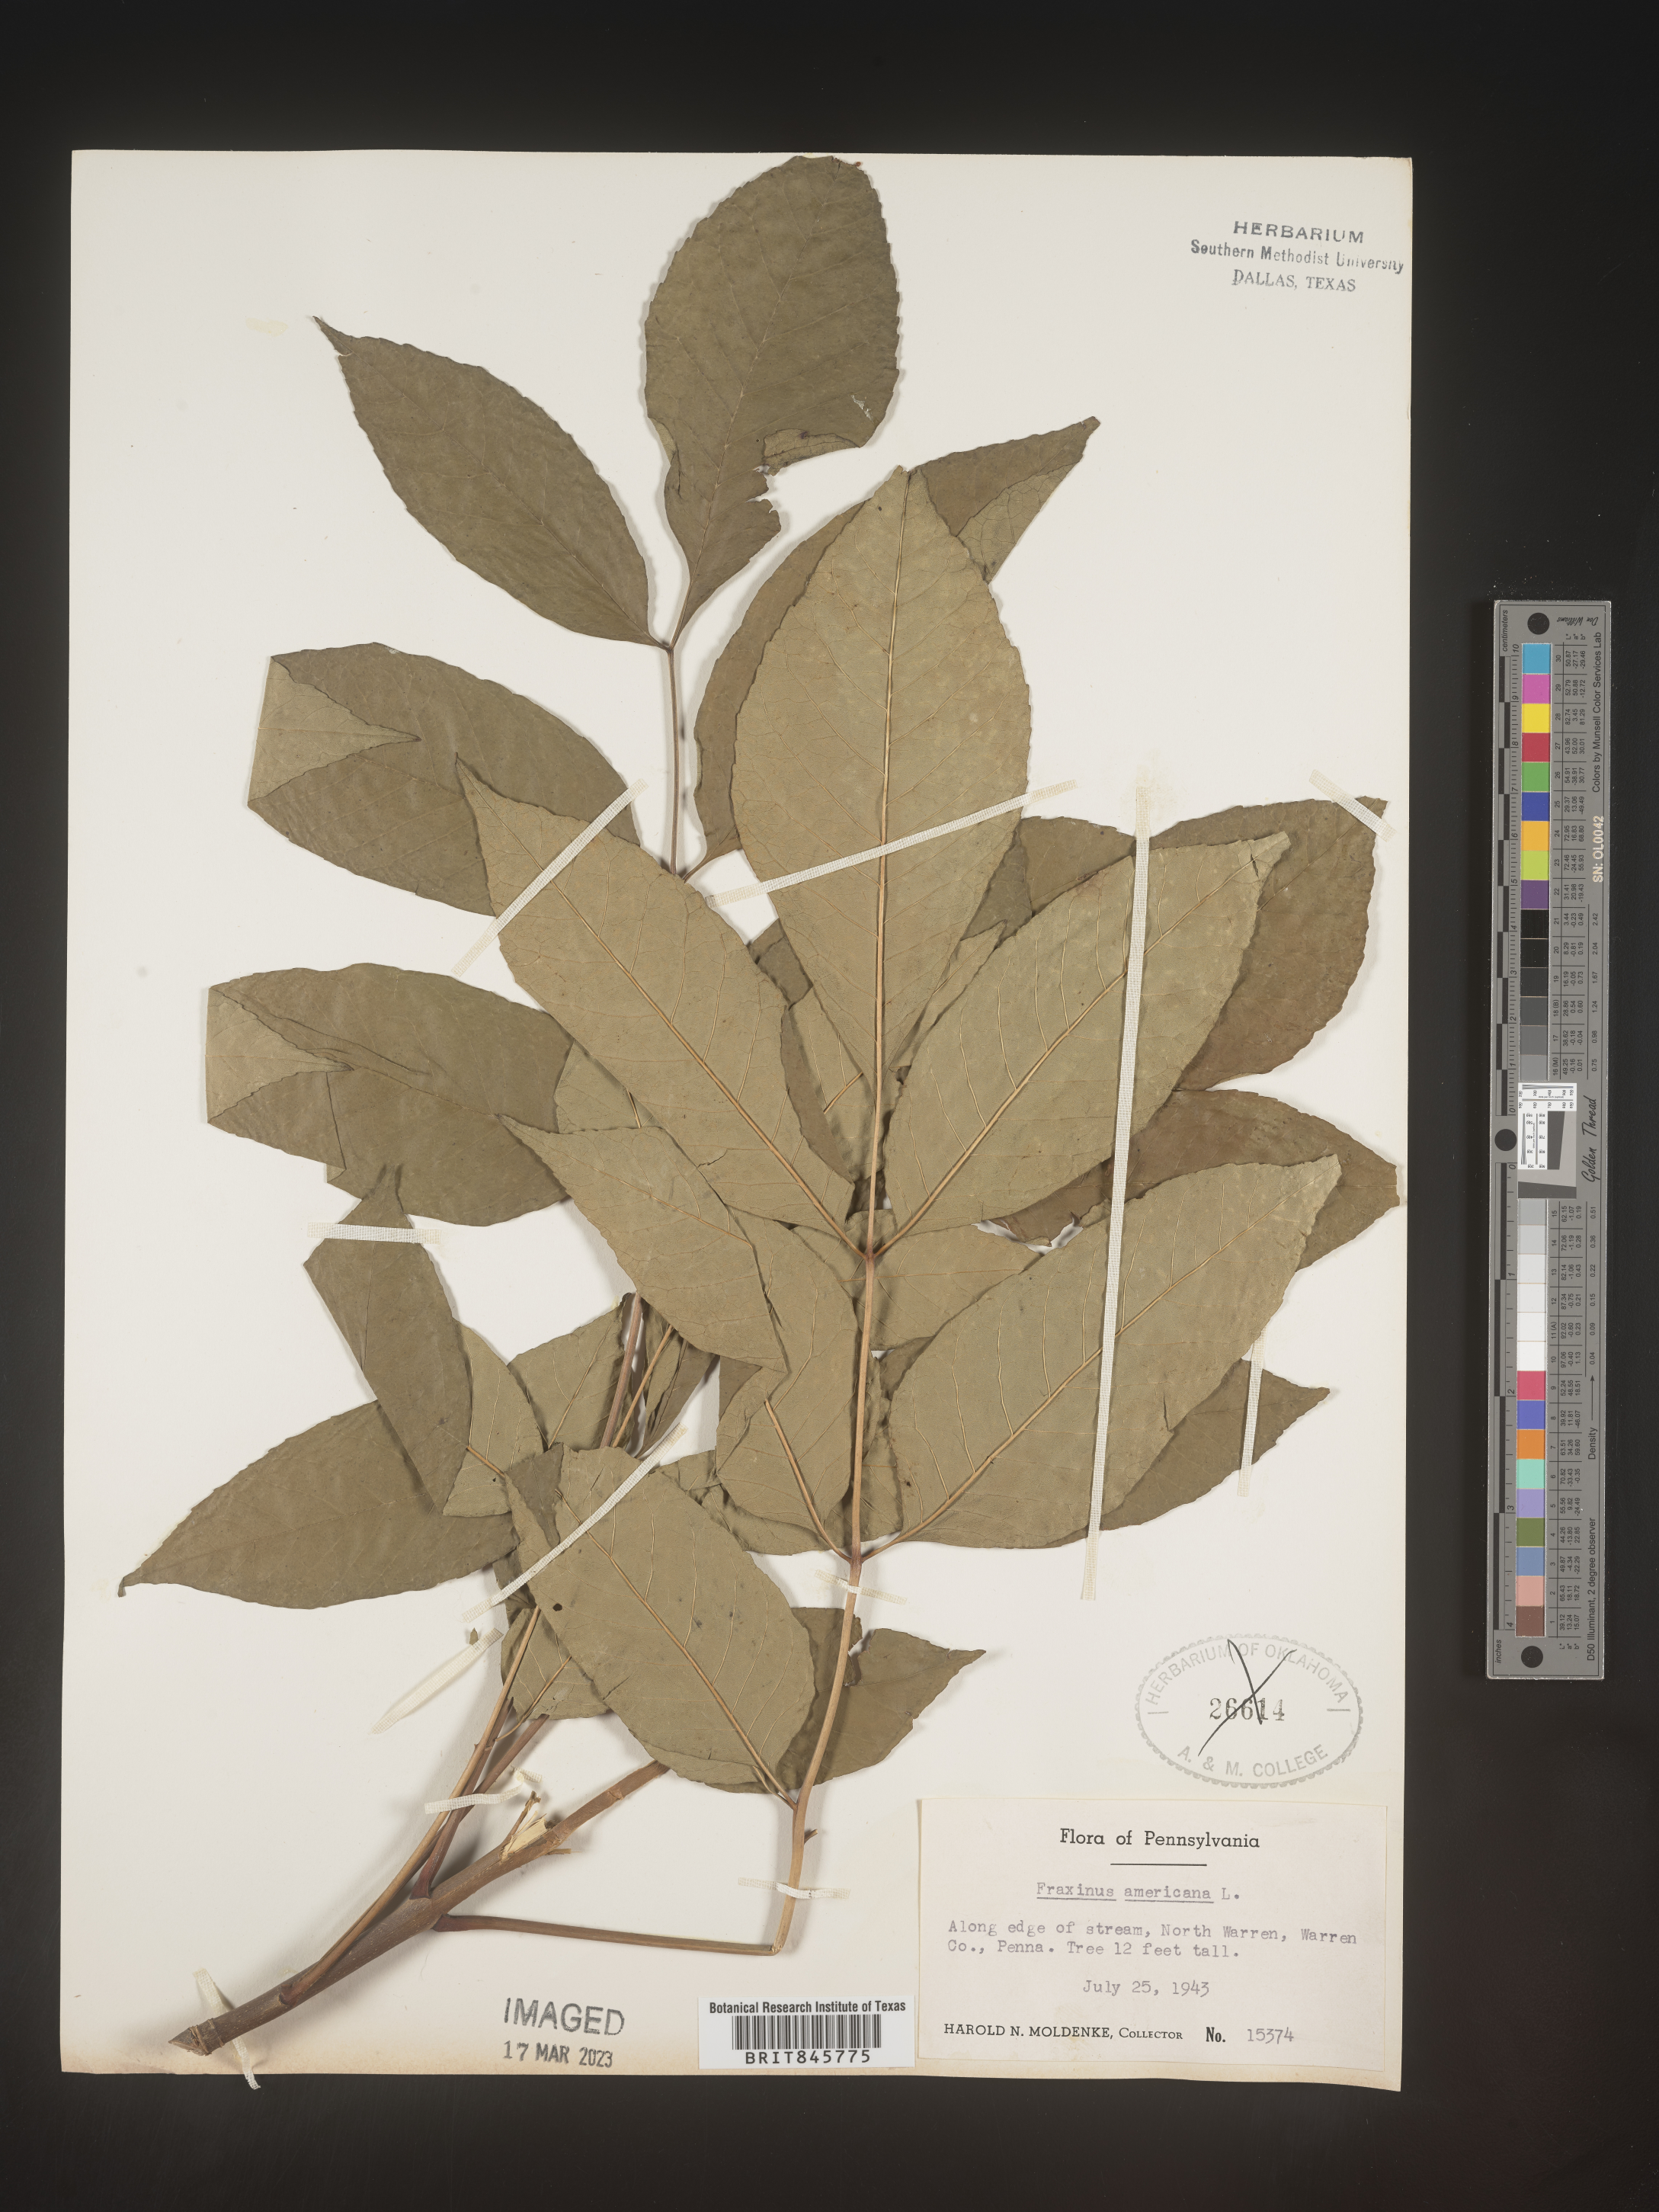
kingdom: Plantae
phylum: Tracheophyta
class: Magnoliopsida
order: Lamiales
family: Oleaceae
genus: Fraxinus
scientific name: Fraxinus americana
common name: White ash
